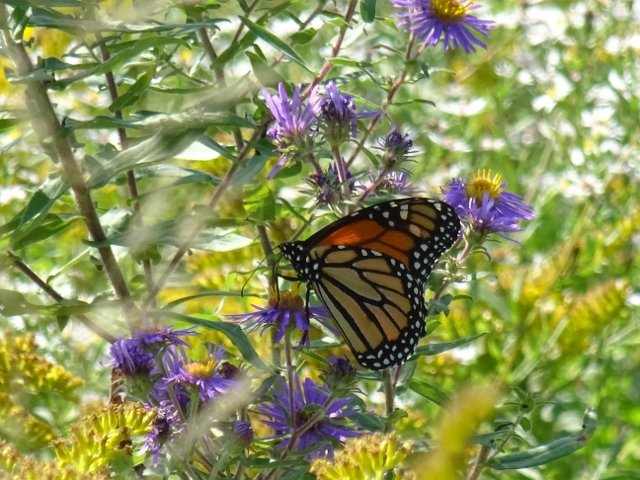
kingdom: Animalia
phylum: Arthropoda
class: Insecta
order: Lepidoptera
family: Nymphalidae
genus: Danaus
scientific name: Danaus plexippus
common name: Monarch
